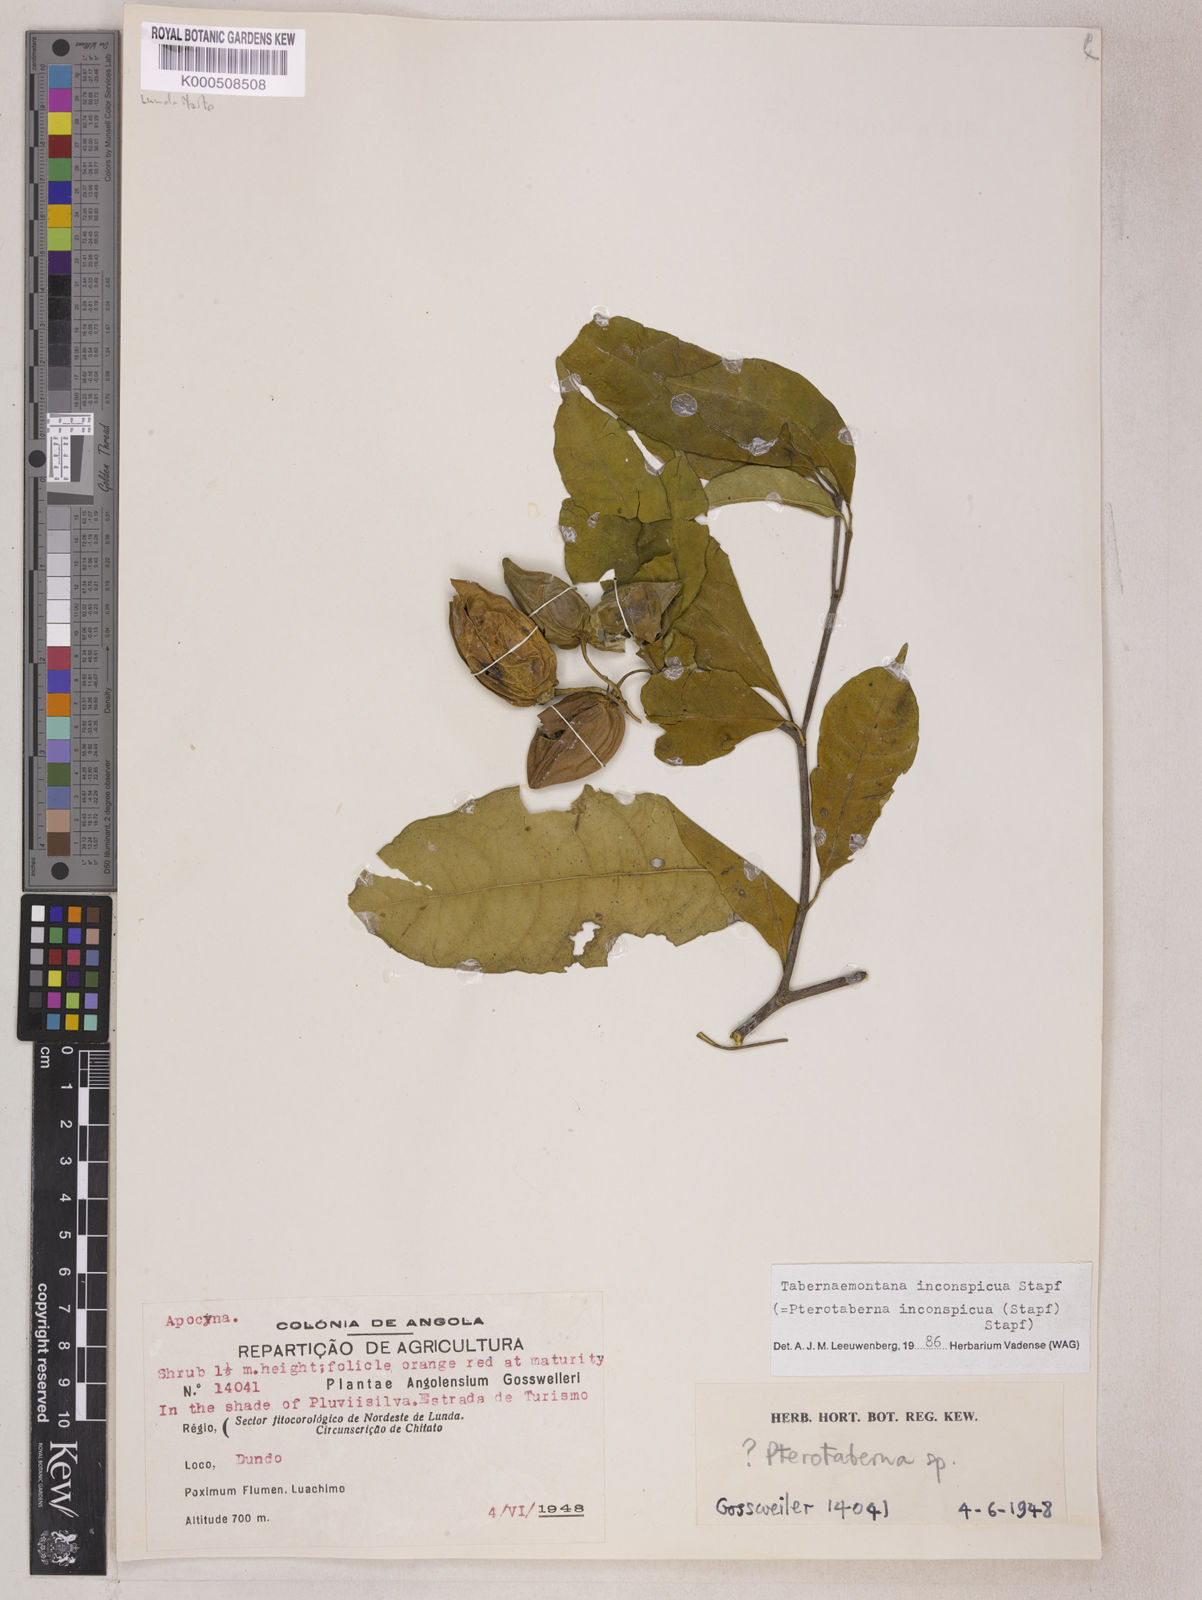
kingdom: Plantae
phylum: Tracheophyta
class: Magnoliopsida
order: Gentianales
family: Apocynaceae
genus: Tabernaemontana
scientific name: Tabernaemontana inconspicua
